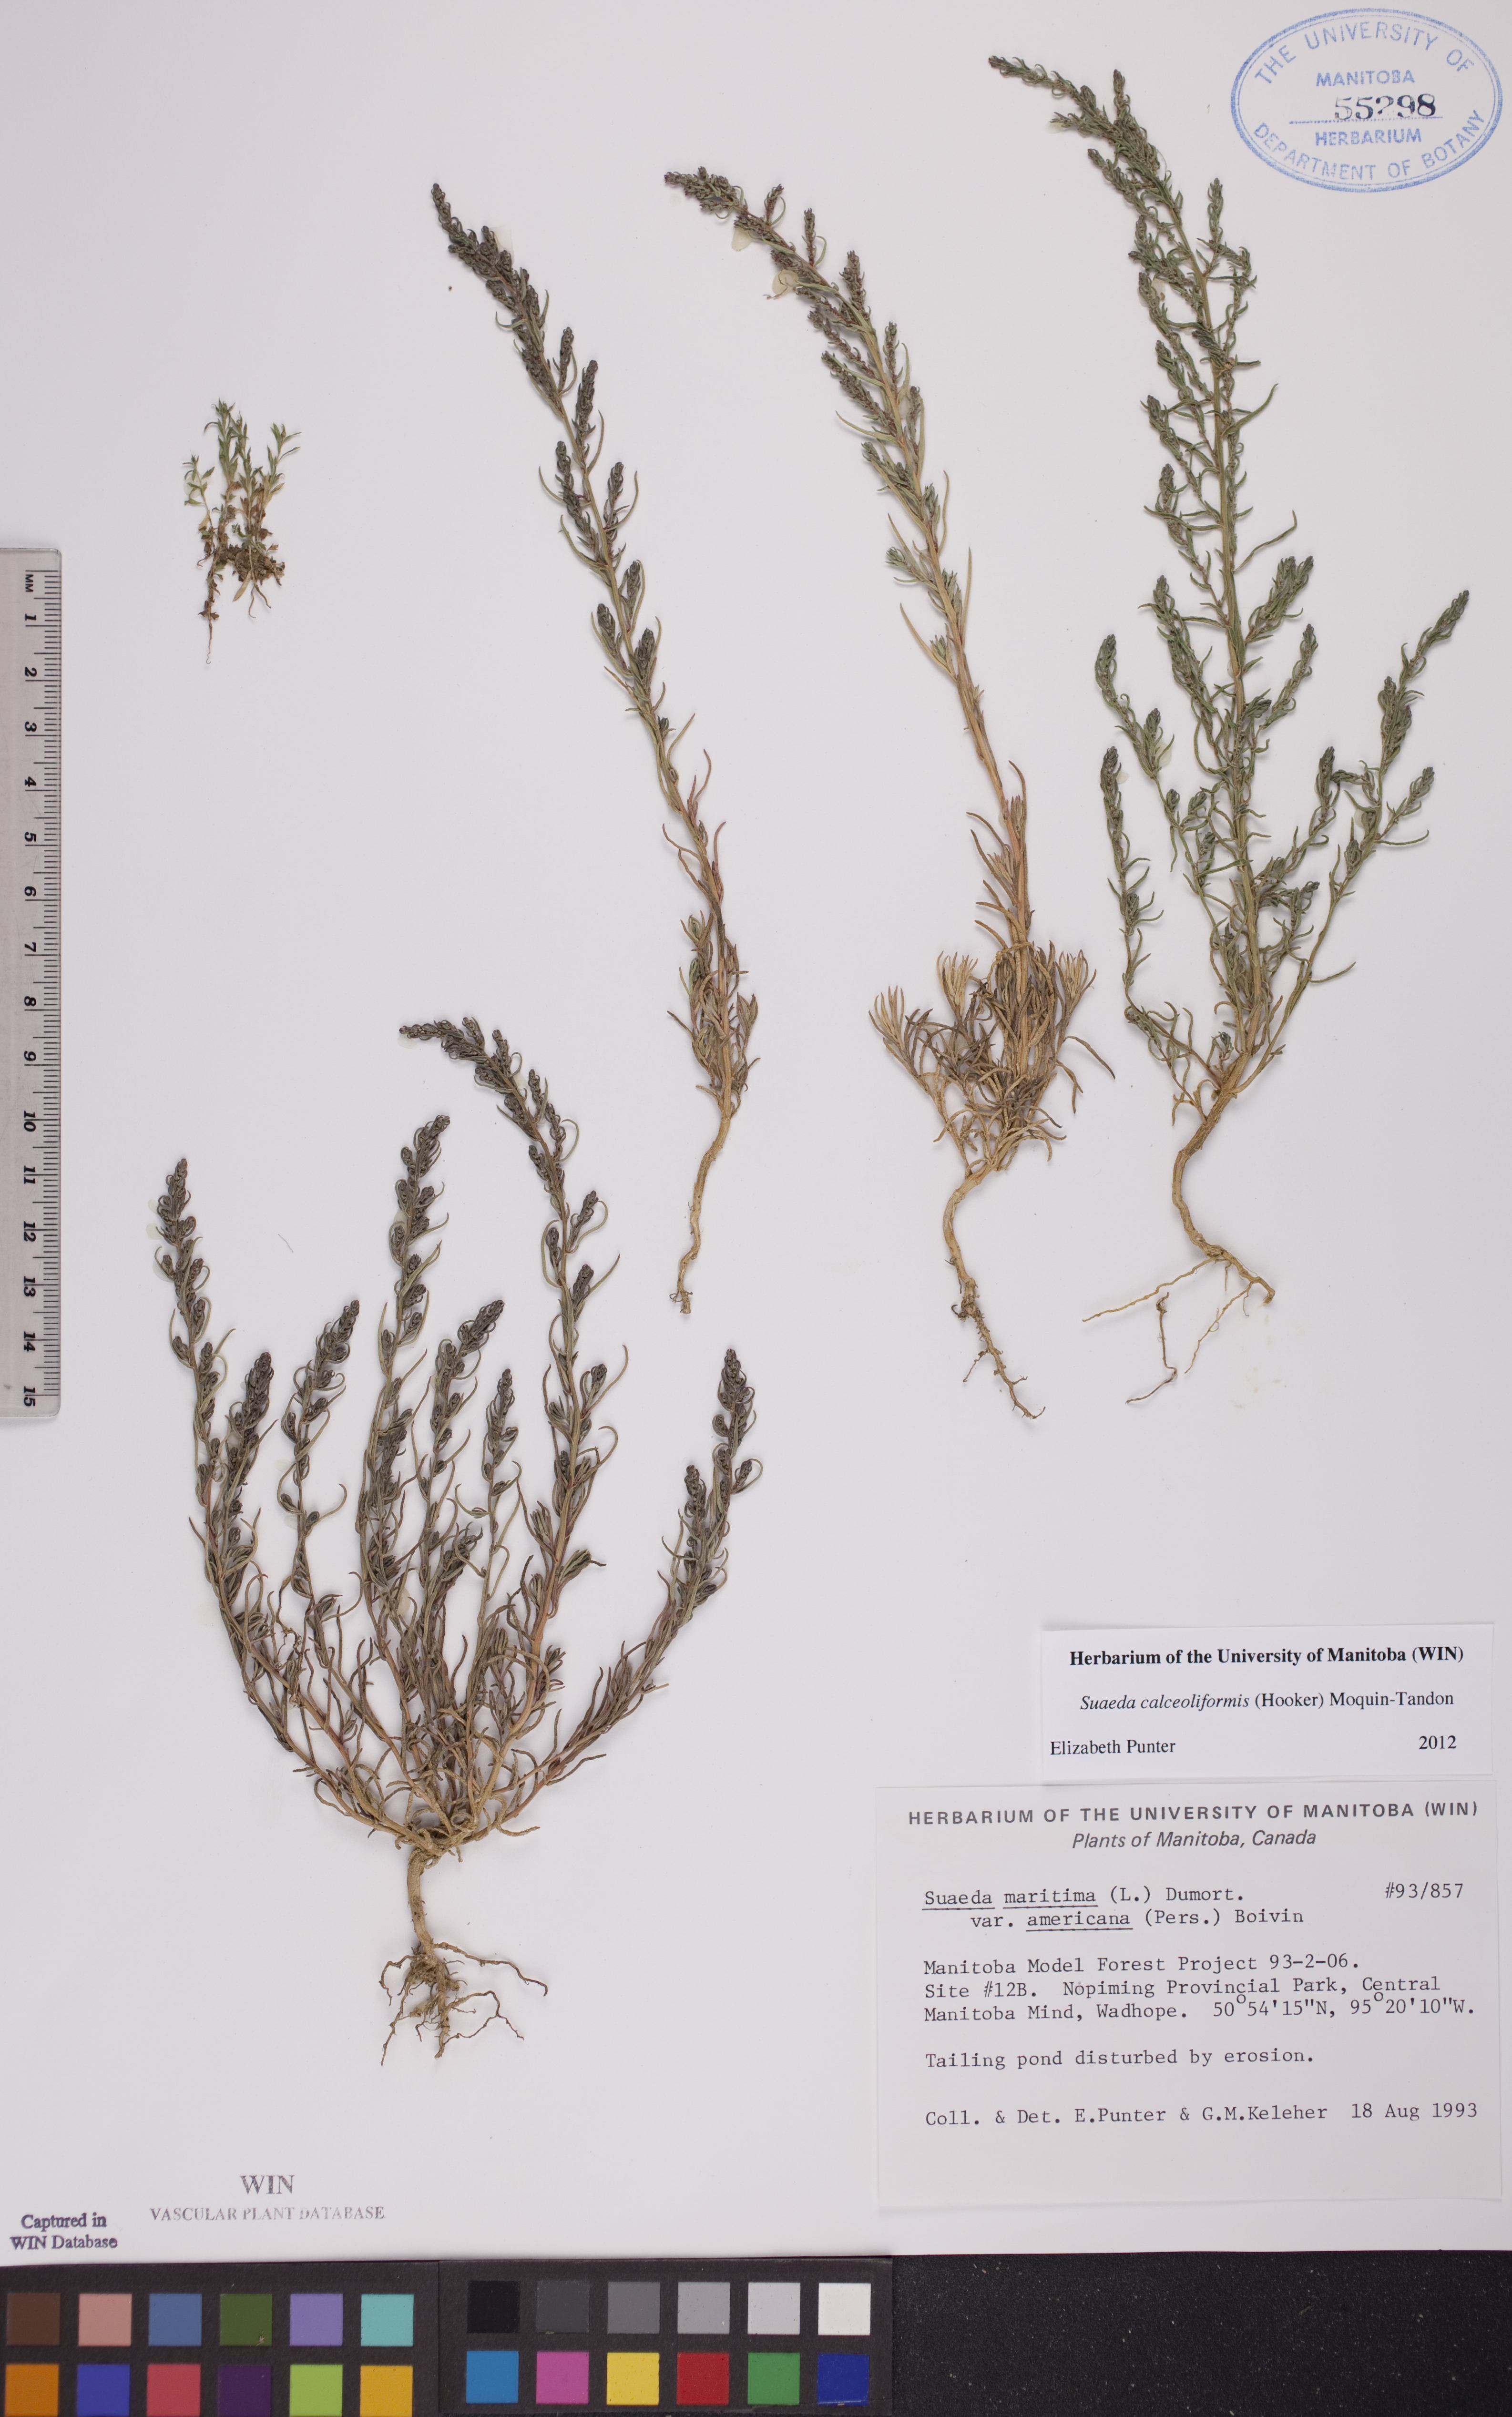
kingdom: Plantae
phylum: Tracheophyta
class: Magnoliopsida
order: Caryophyllales
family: Amaranthaceae
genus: Suaeda
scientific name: Suaeda calceoliformis
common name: Pursh's seepweed
